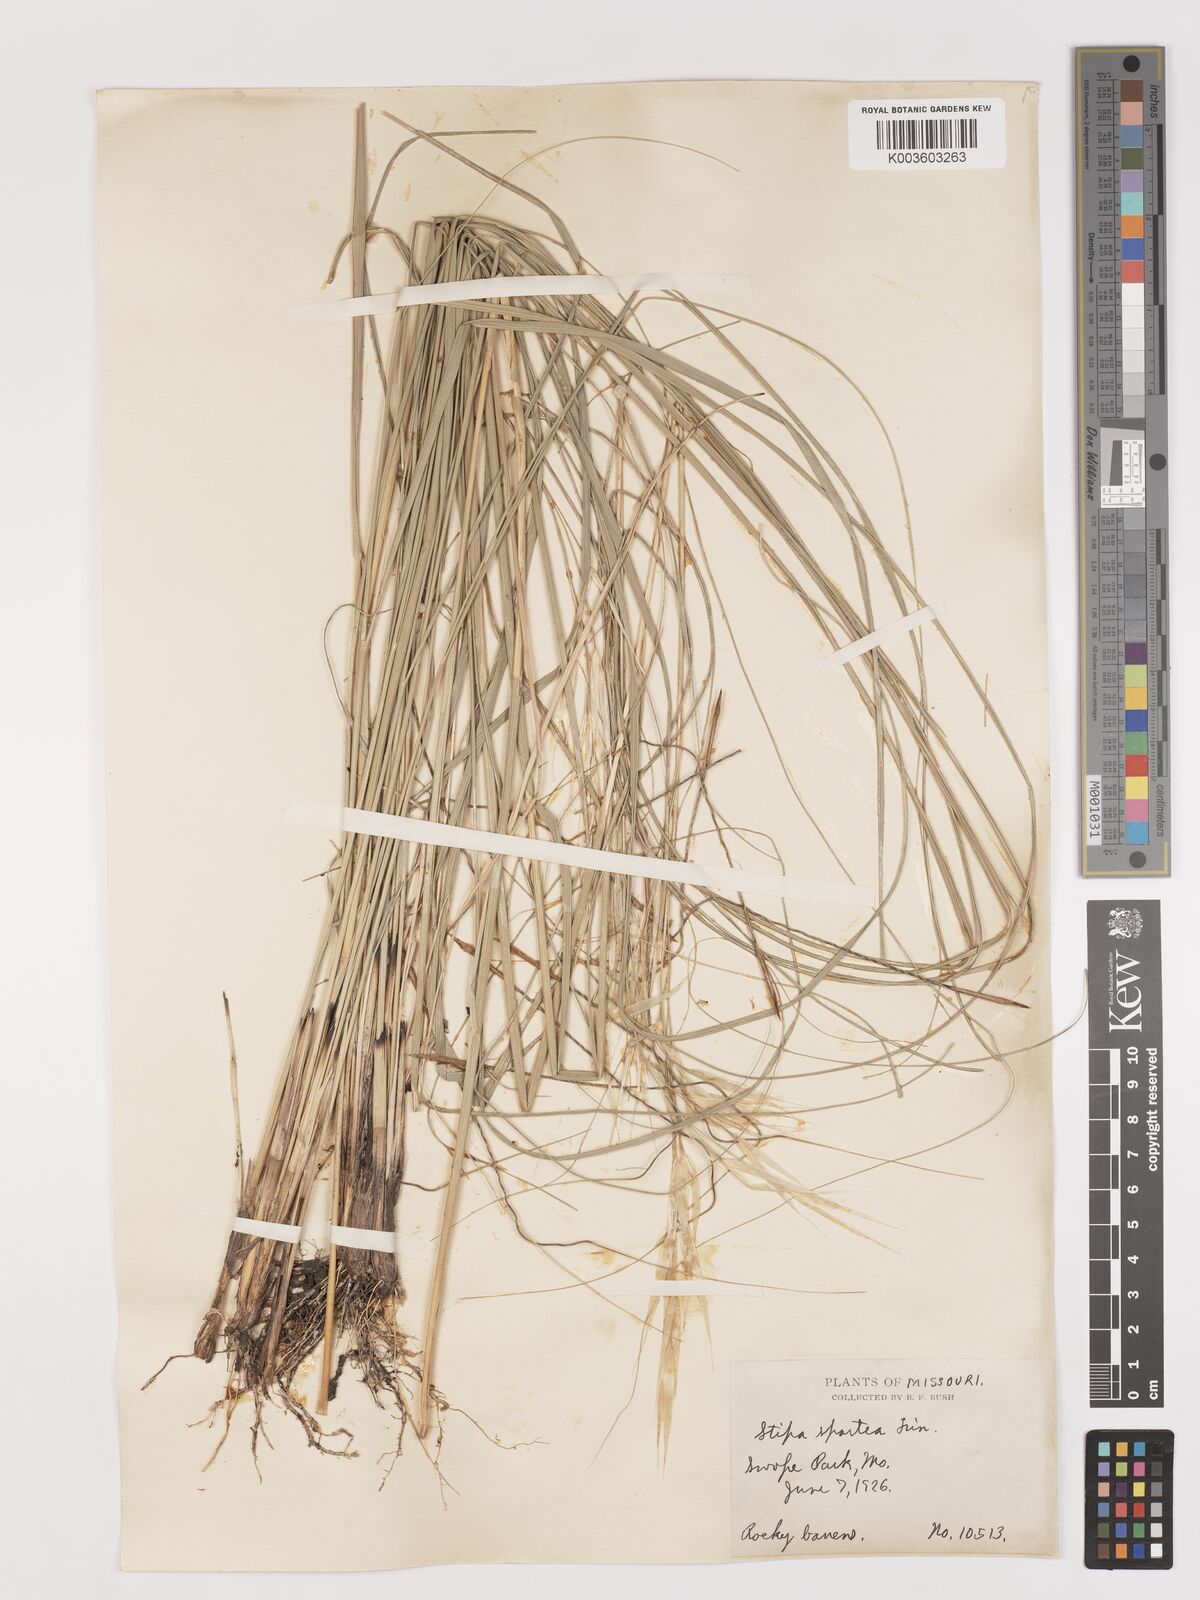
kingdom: Plantae
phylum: Tracheophyta
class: Liliopsida
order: Poales
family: Poaceae
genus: Hesperostipa
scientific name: Hesperostipa spartea
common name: Porcupine grass
